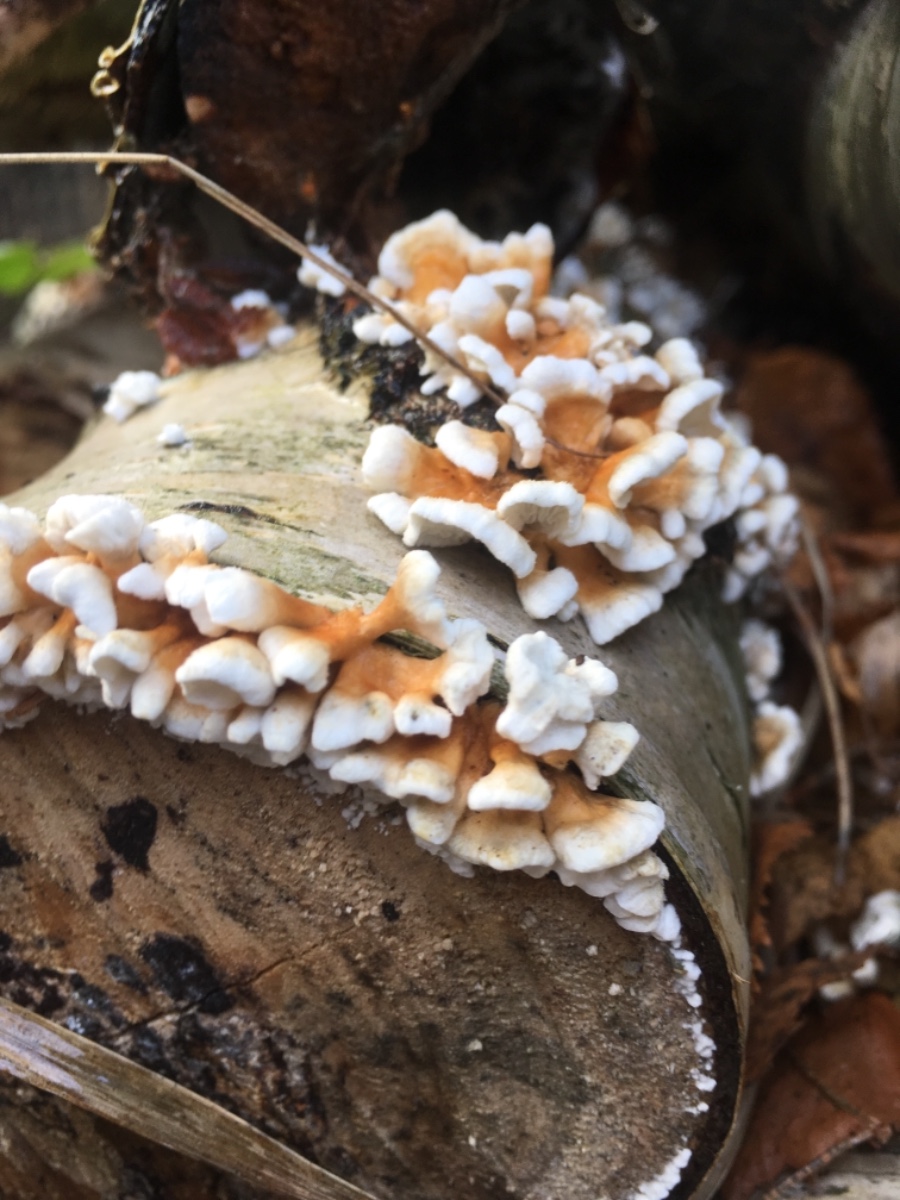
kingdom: Fungi
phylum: Basidiomycota
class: Agaricomycetes
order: Amylocorticiales
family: Amylocorticiaceae
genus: Plicaturopsis
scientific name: Plicaturopsis crispa
